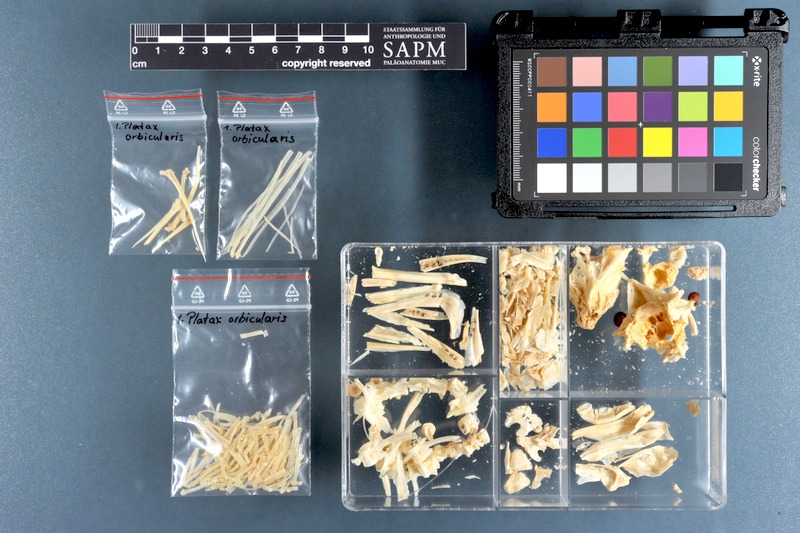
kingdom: Animalia
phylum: Chordata
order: Perciformes
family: Ephippidae
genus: Platax
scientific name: Platax orbicularis
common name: Batfish
